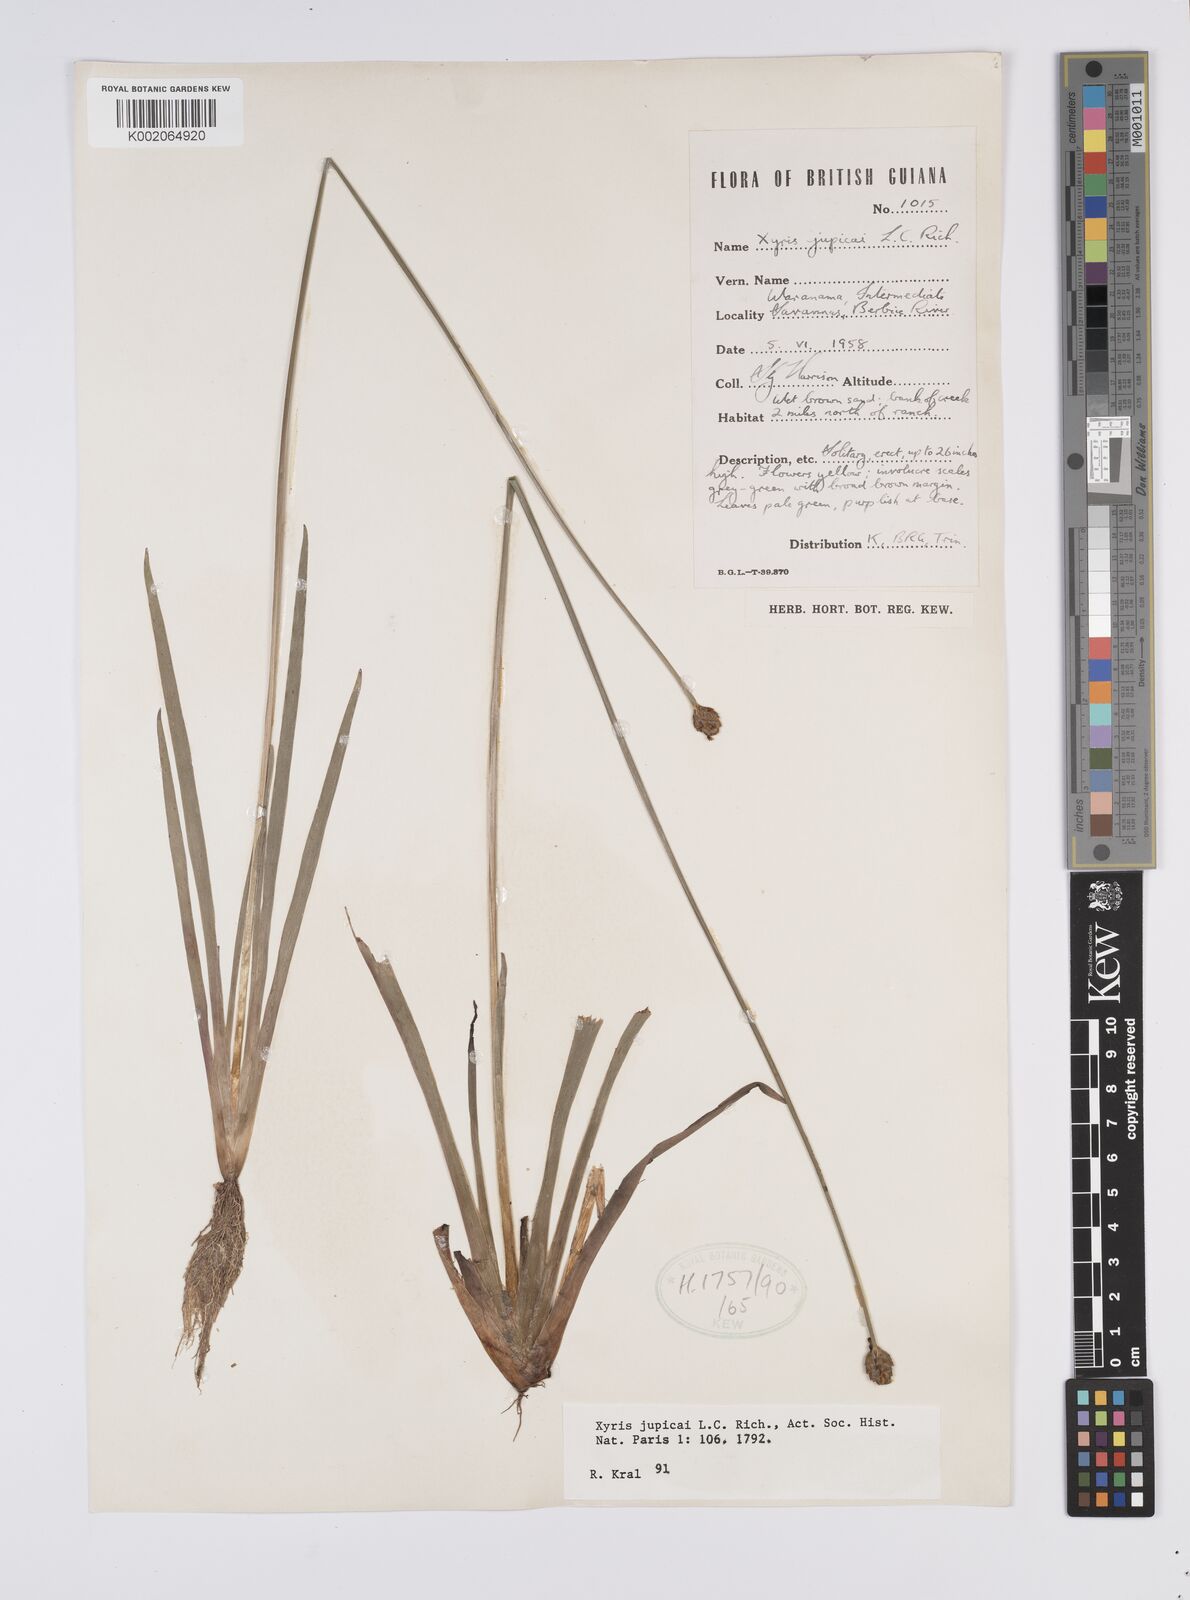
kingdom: Plantae
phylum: Tracheophyta
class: Liliopsida
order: Poales
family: Xyridaceae
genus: Xyris
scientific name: Xyris jupicai
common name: Richard's yelloweyed grass
